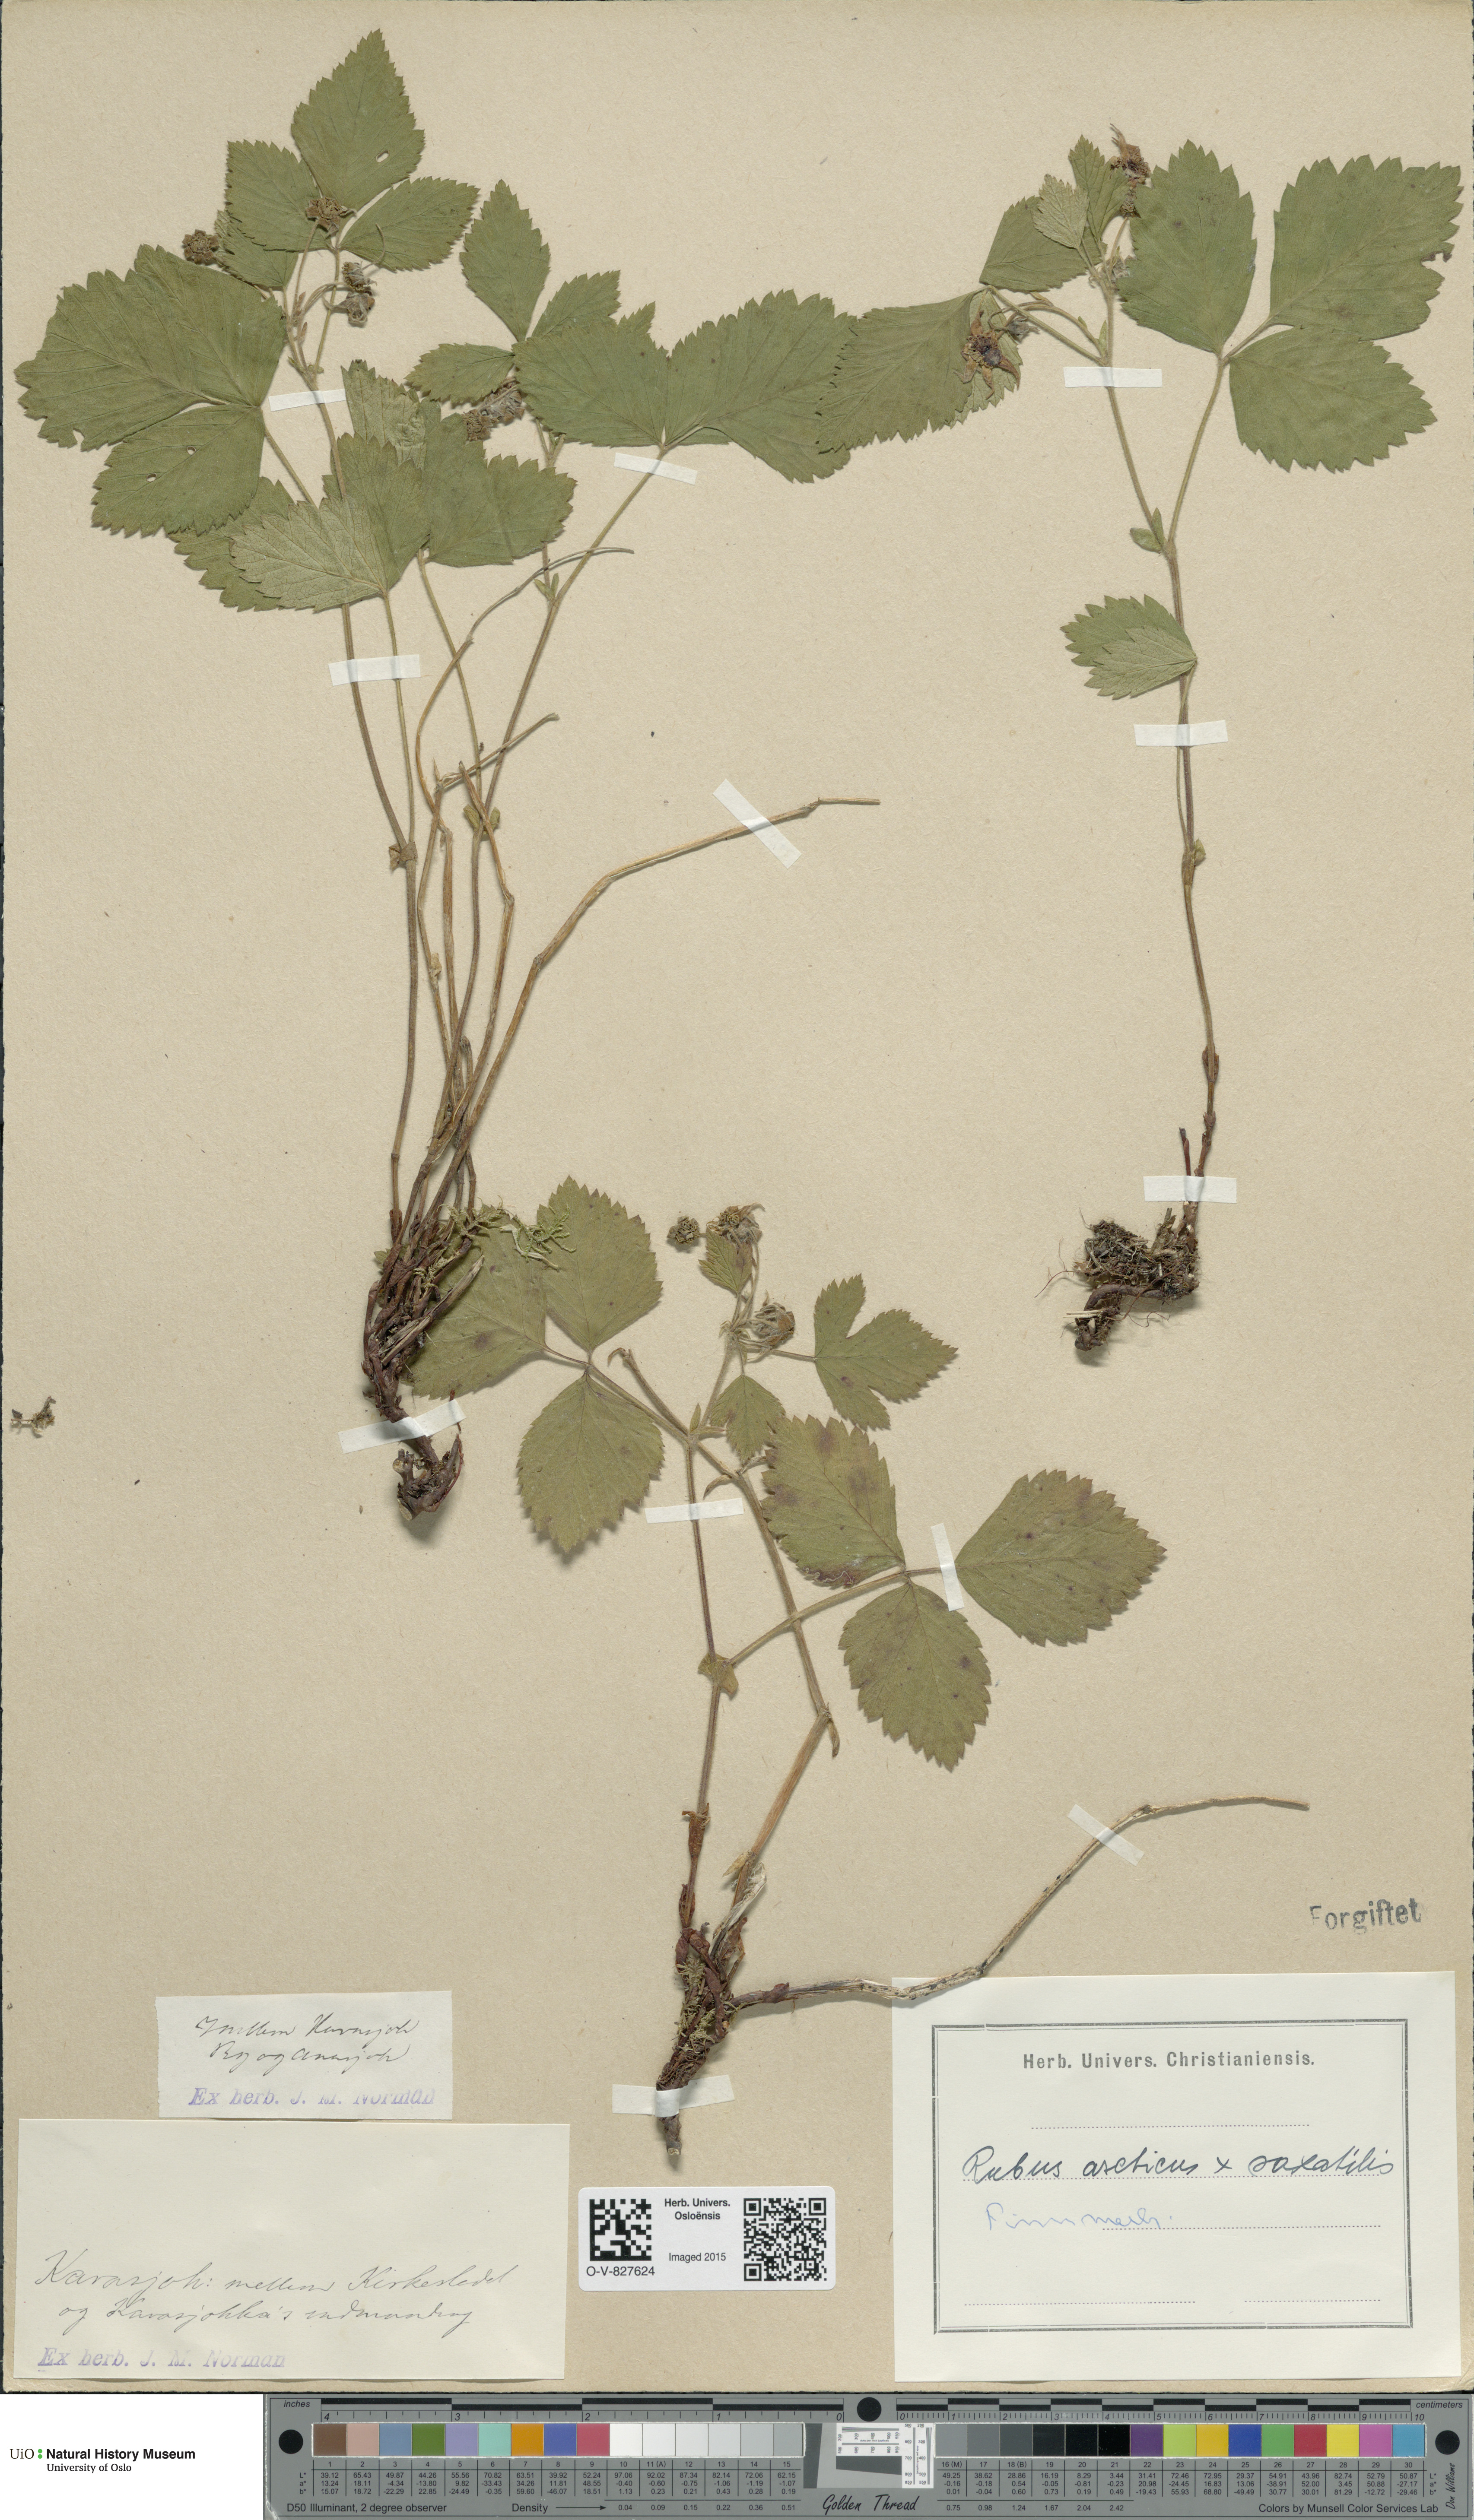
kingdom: Plantae
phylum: Tracheophyta
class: Magnoliopsida
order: Rosales
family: Rosaceae
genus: Rubus
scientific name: Rubus
